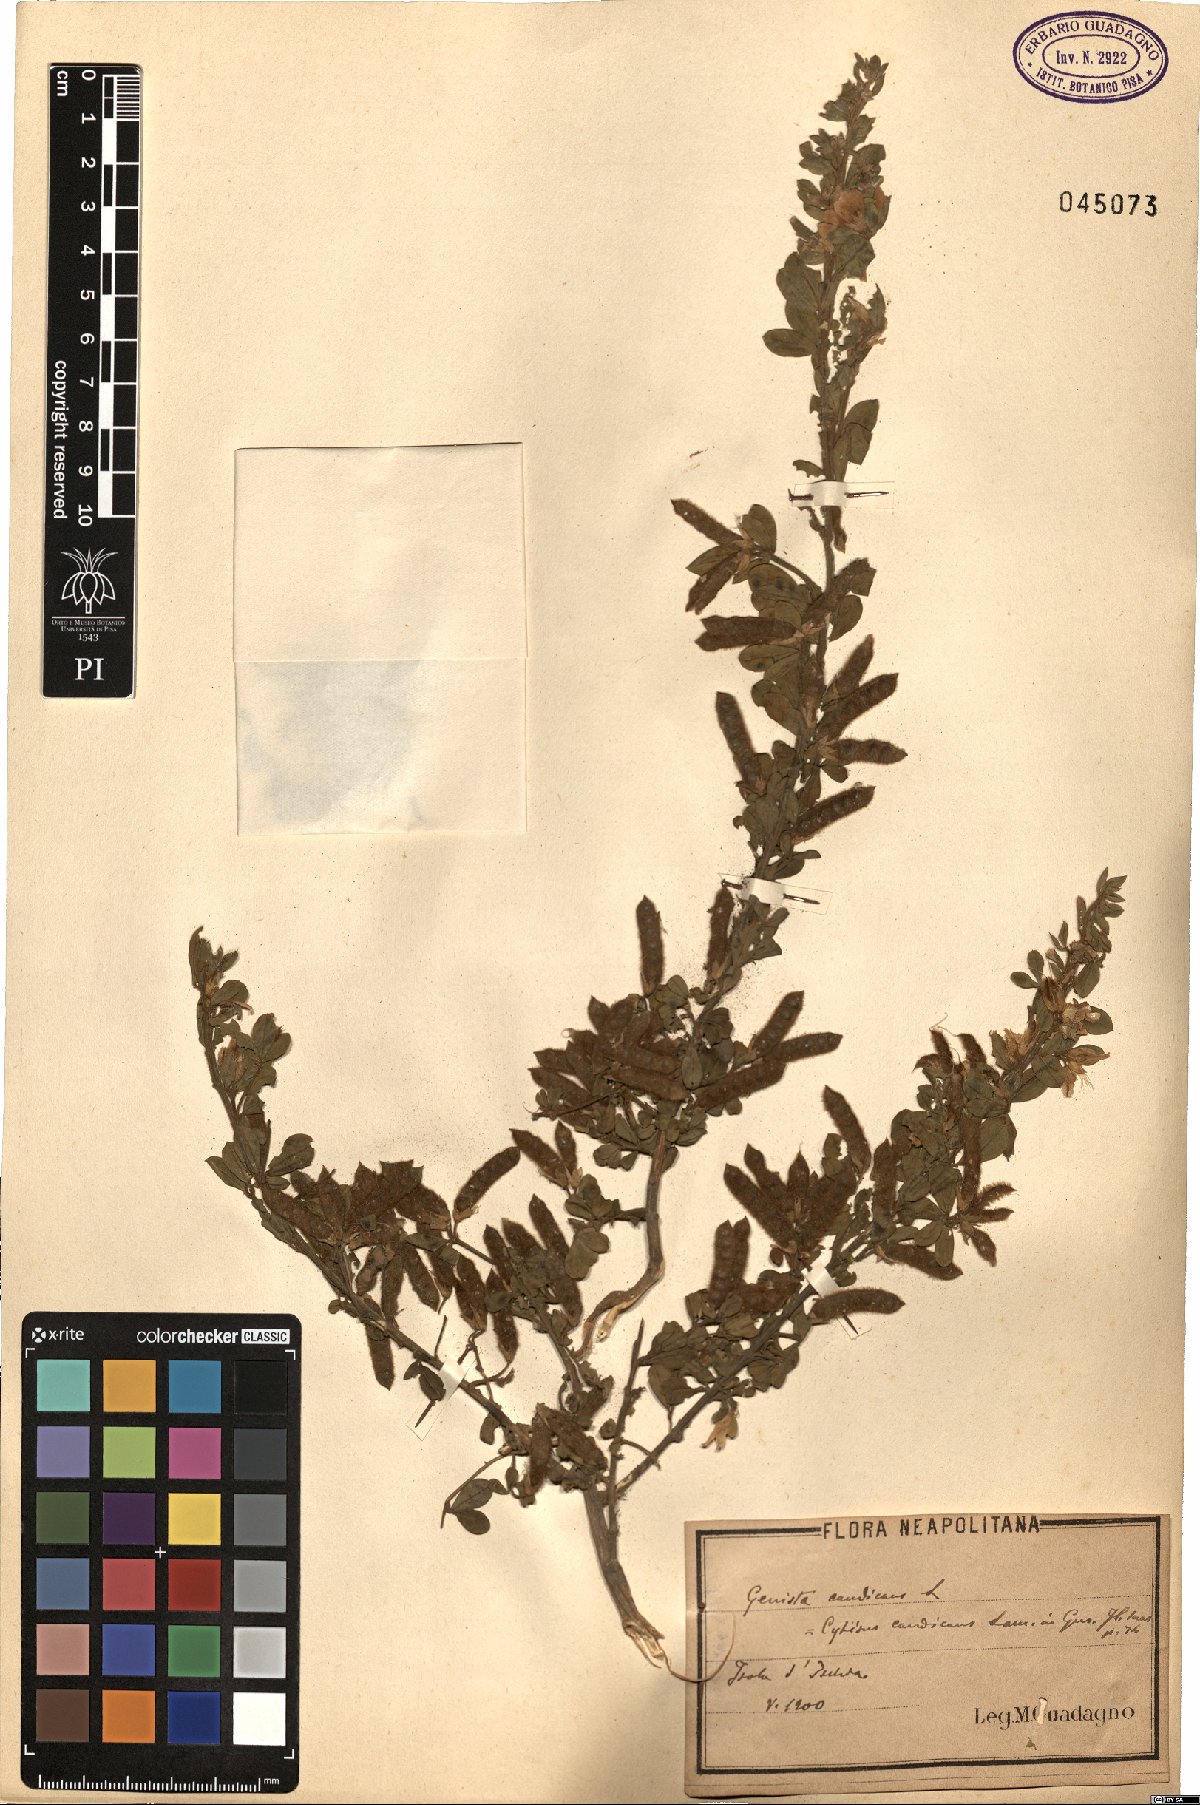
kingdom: Plantae
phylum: Tracheophyta
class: Magnoliopsida
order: Fabales
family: Fabaceae
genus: Genista
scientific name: Genista monspessulana
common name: Montpellier broom
